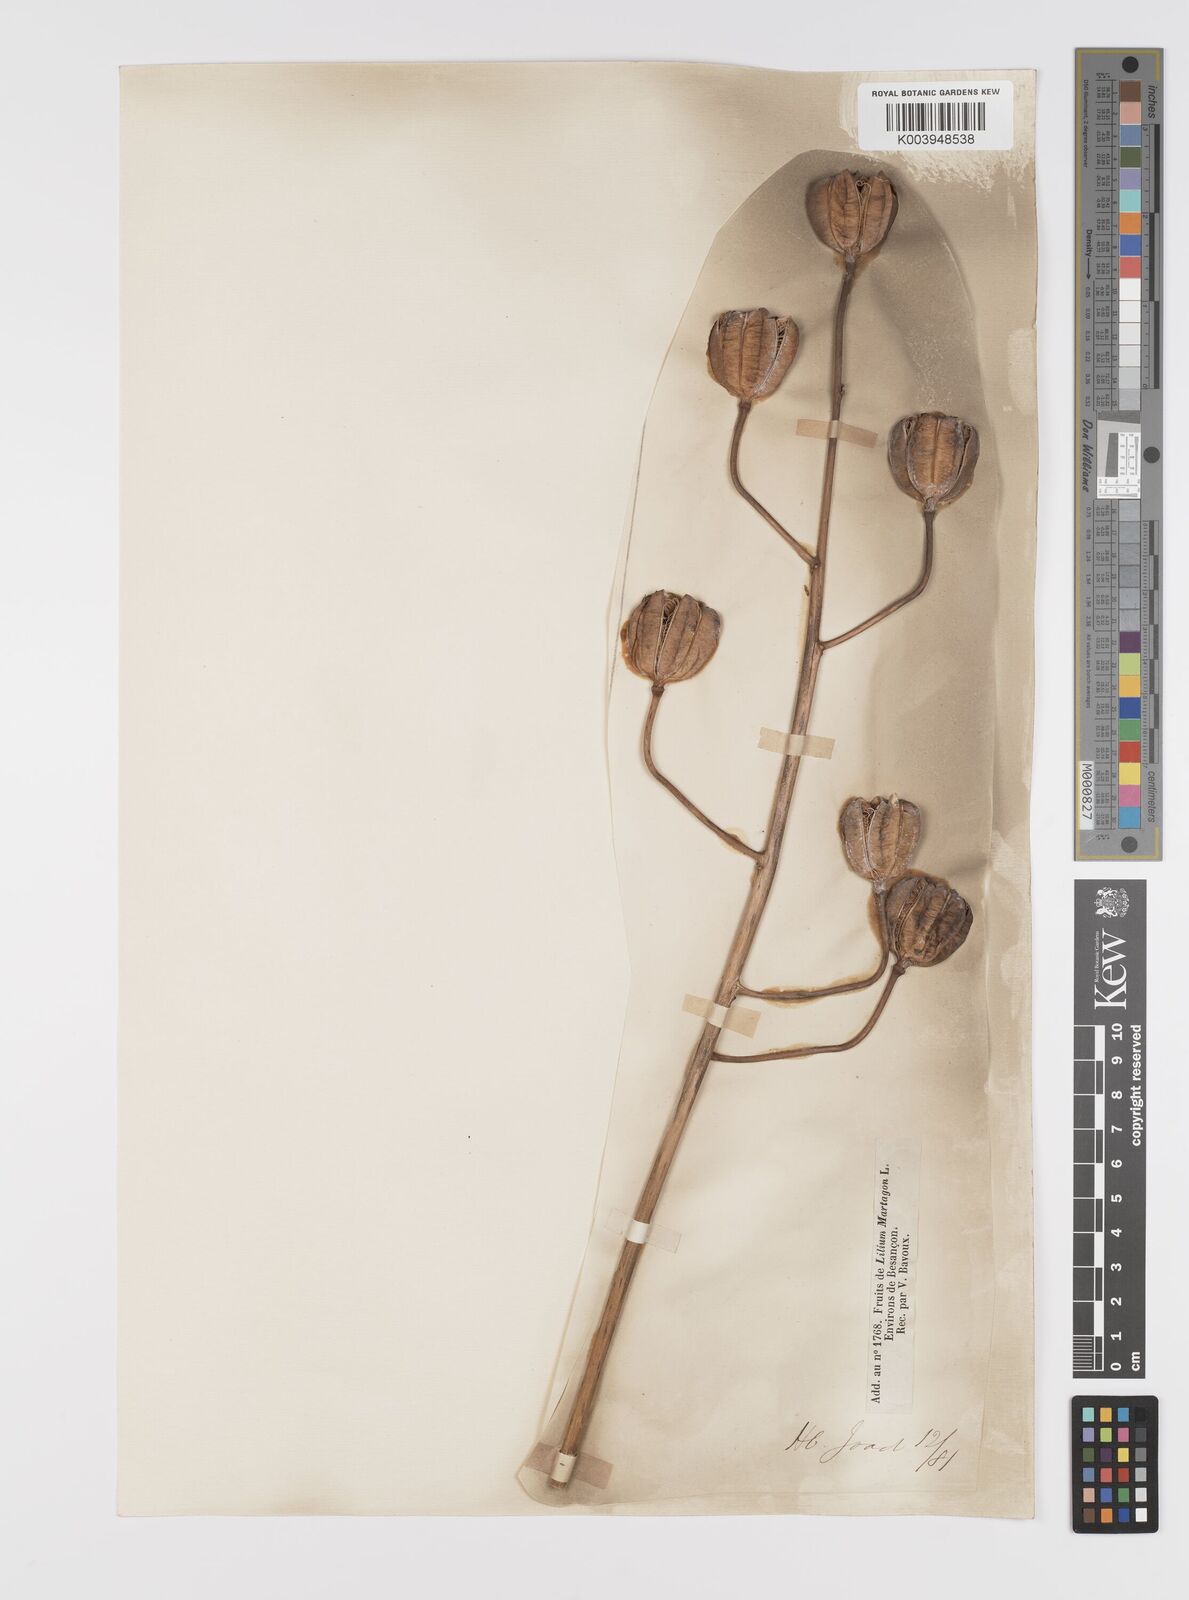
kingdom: Plantae
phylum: Tracheophyta
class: Liliopsida
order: Liliales
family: Liliaceae
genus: Lilium
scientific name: Lilium martagon
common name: Martagon lily
